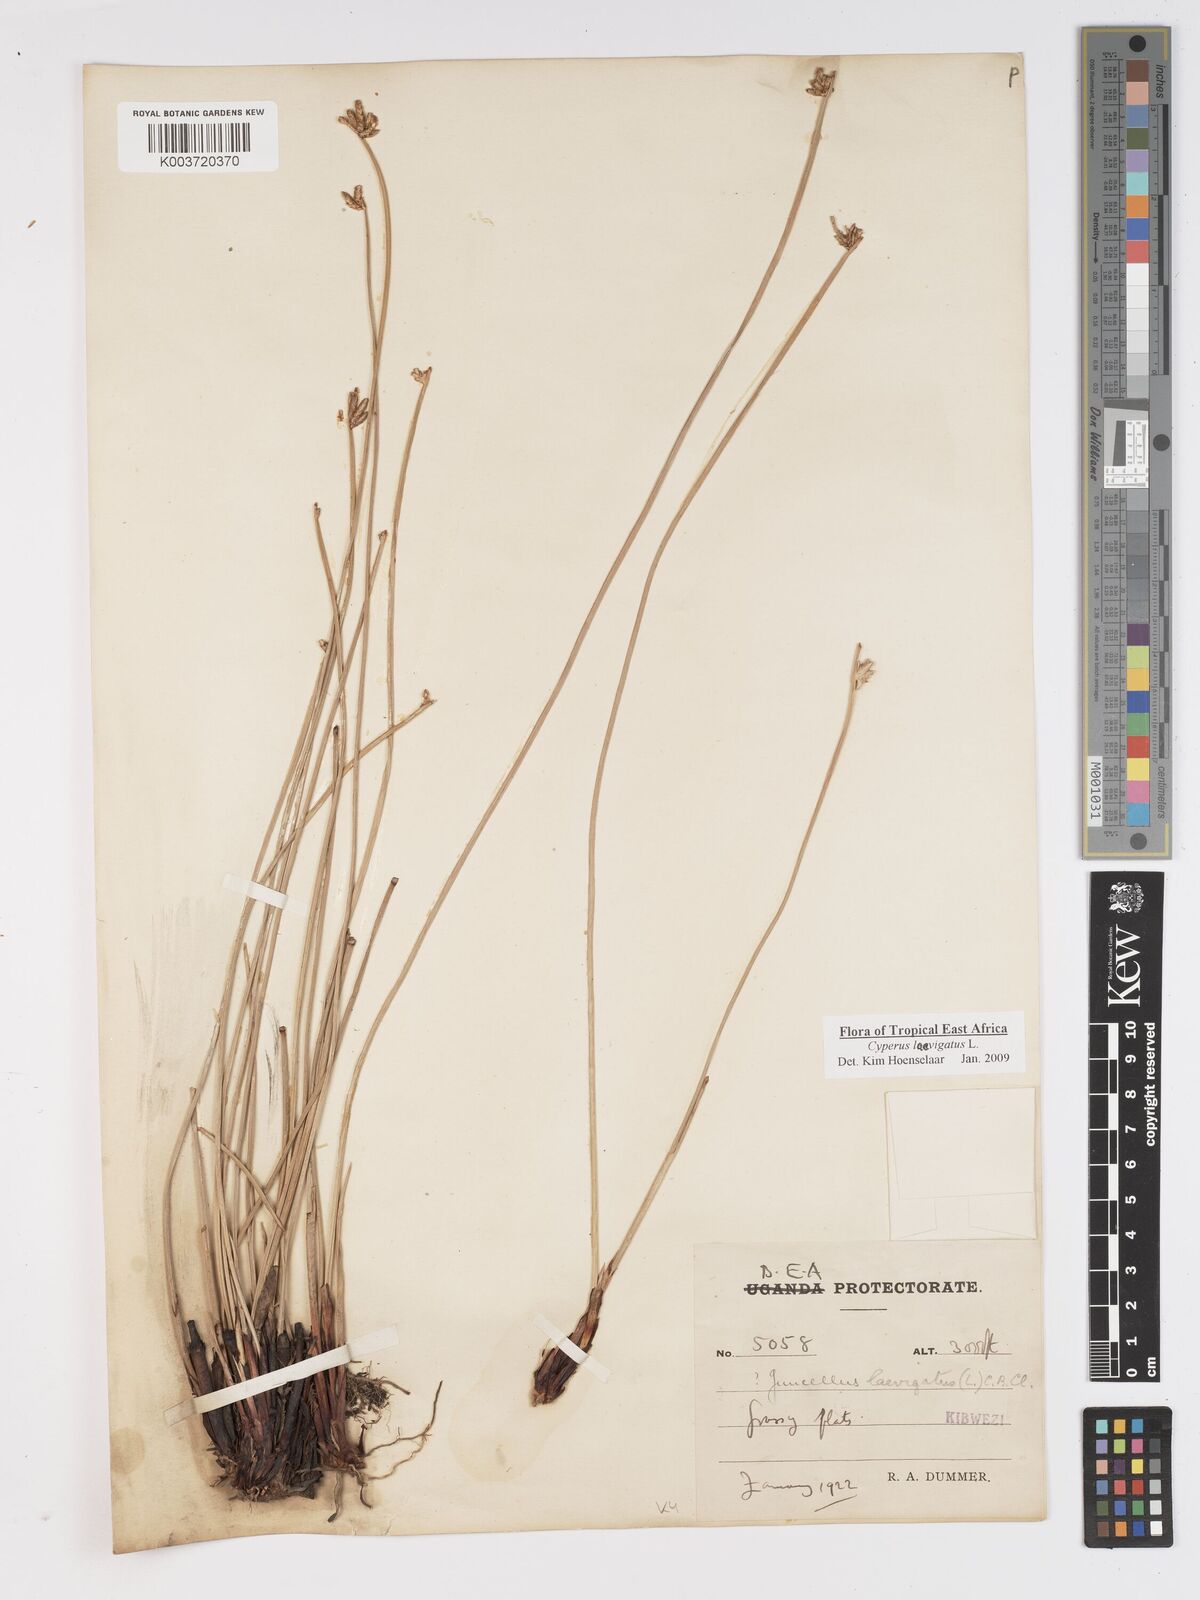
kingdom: Plantae
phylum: Tracheophyta
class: Liliopsida
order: Poales
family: Cyperaceae
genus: Cyperus
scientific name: Cyperus laevigatus
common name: Smooth flat sedge
